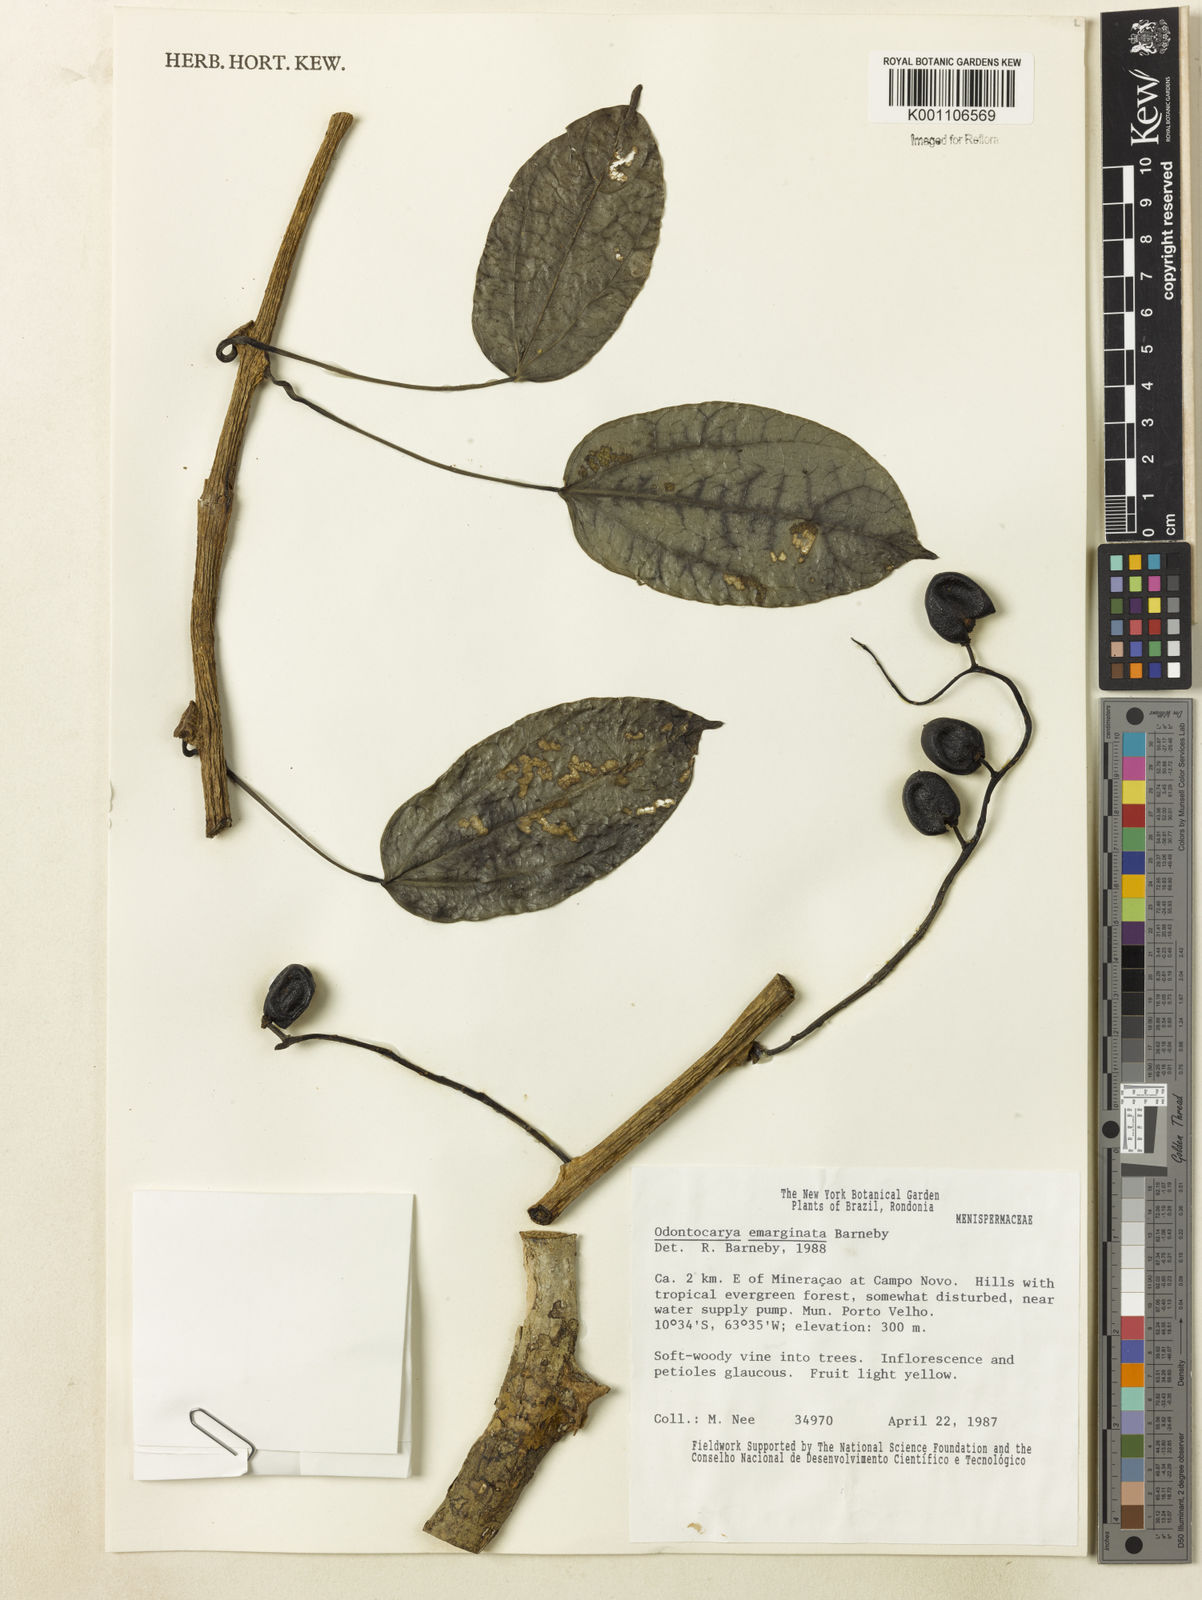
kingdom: Plantae
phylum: Tracheophyta
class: Magnoliopsida
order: Ranunculales
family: Menispermaceae
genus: Odontocarya
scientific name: Odontocarya emarginata
